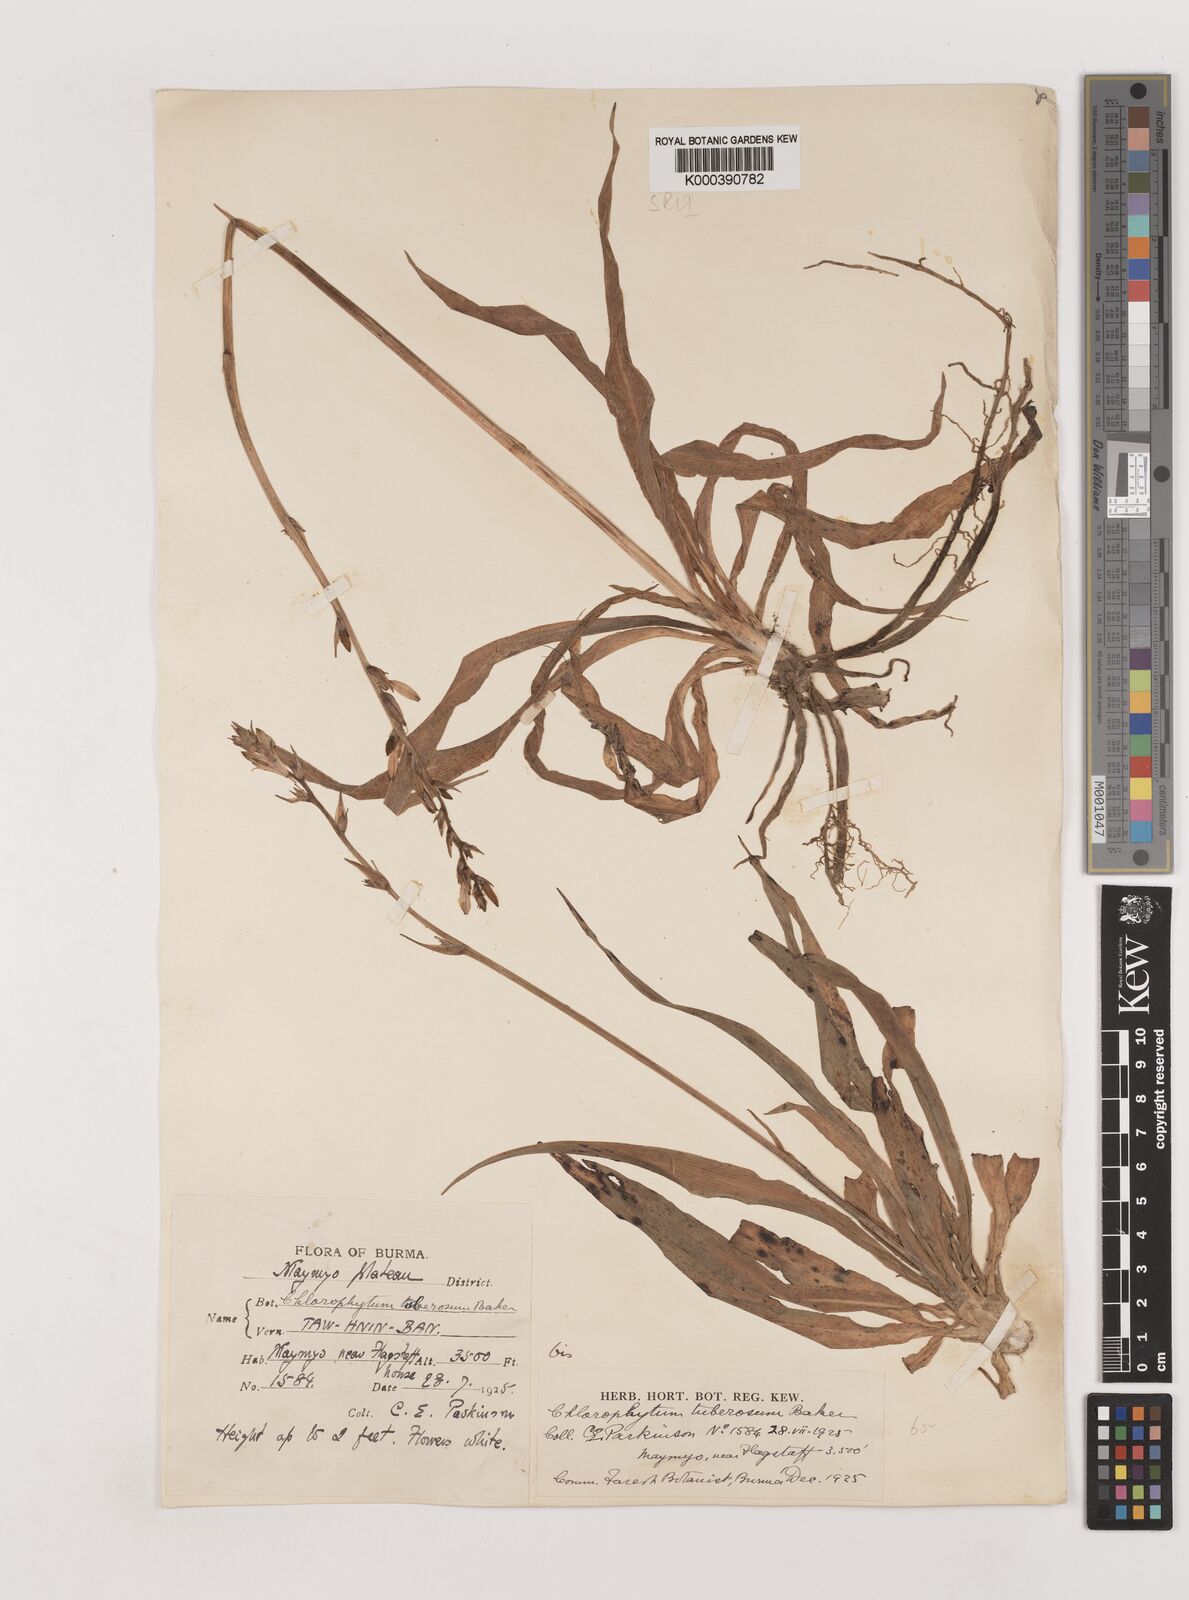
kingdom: Plantae
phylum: Tracheophyta
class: Liliopsida
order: Asparagales
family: Asparagaceae
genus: Chlorophytum
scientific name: Chlorophytum tuberosum
